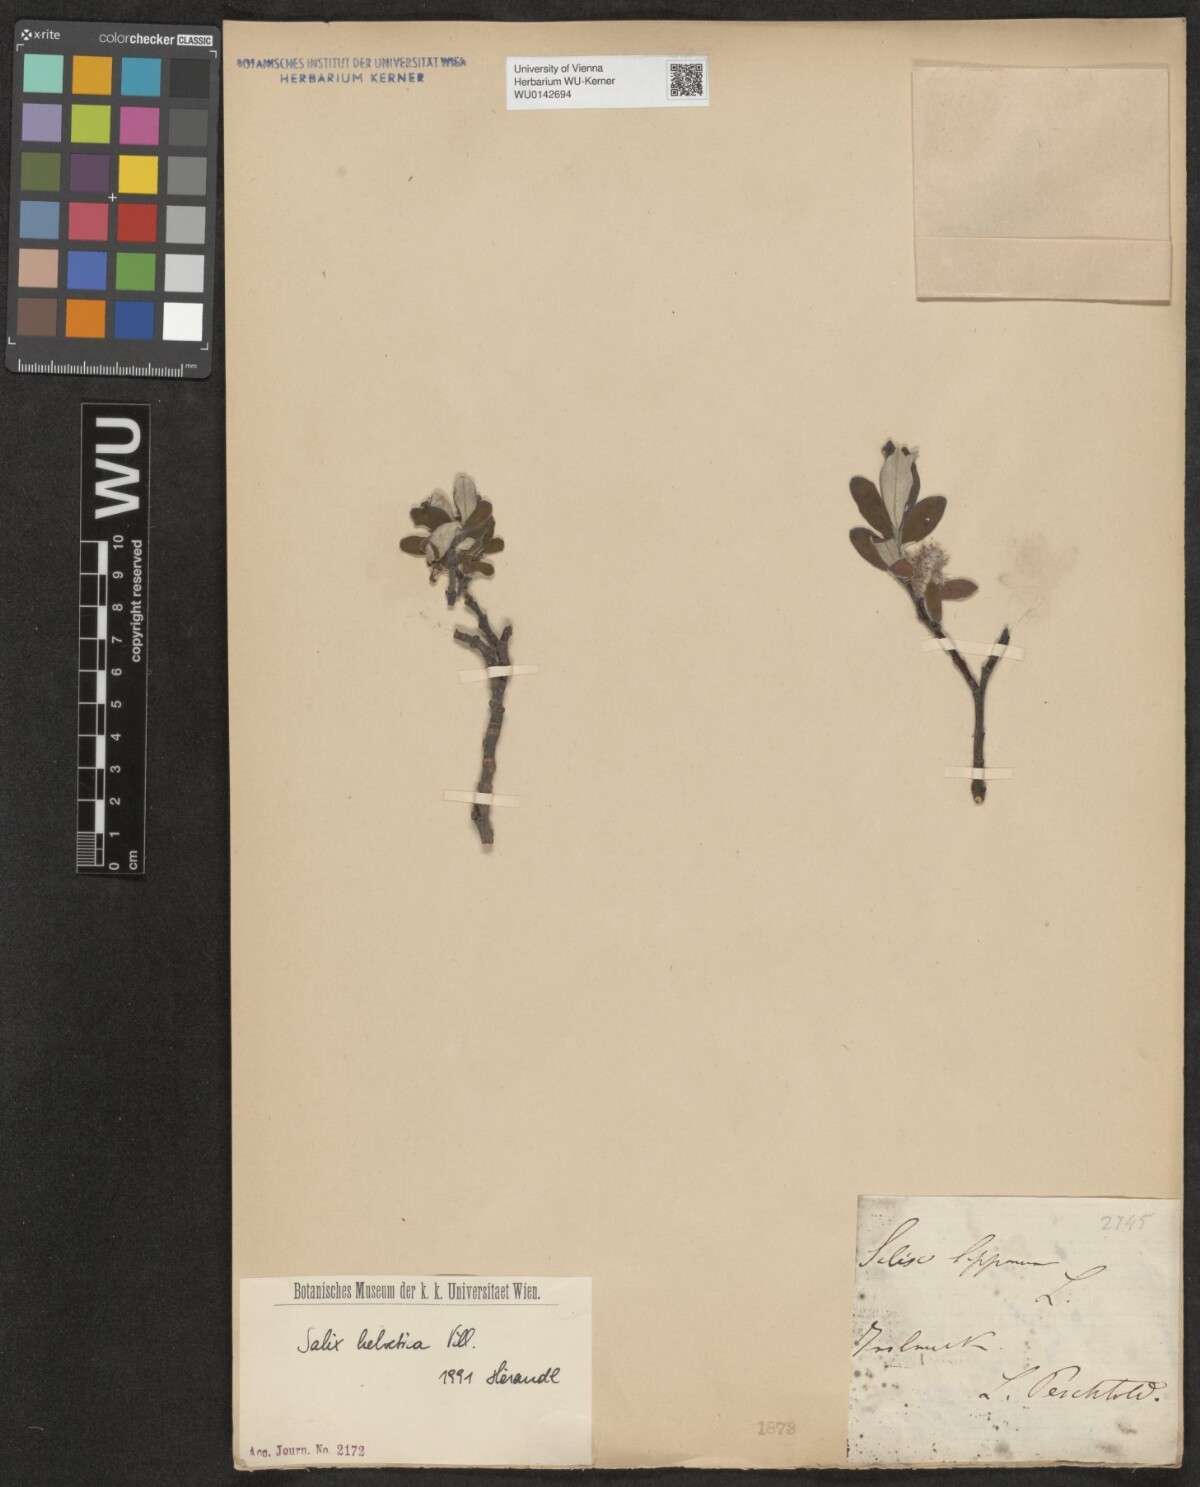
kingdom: Plantae
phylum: Tracheophyta
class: Magnoliopsida
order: Malpighiales
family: Salicaceae
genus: Salix
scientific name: Salix helvetica
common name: Swiss willow
